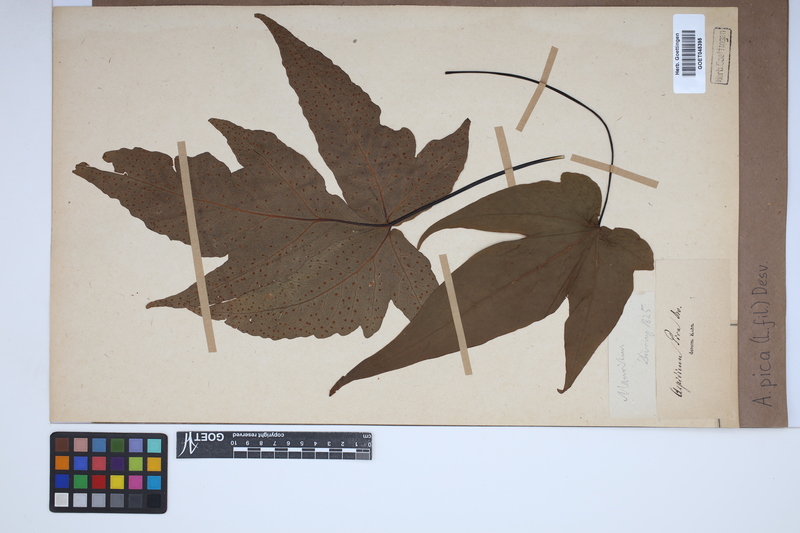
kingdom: Plantae
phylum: Tracheophyta
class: Polypodiopsida
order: Polypodiales
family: Tectariaceae
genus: Tectaria
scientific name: Tectaria pica
